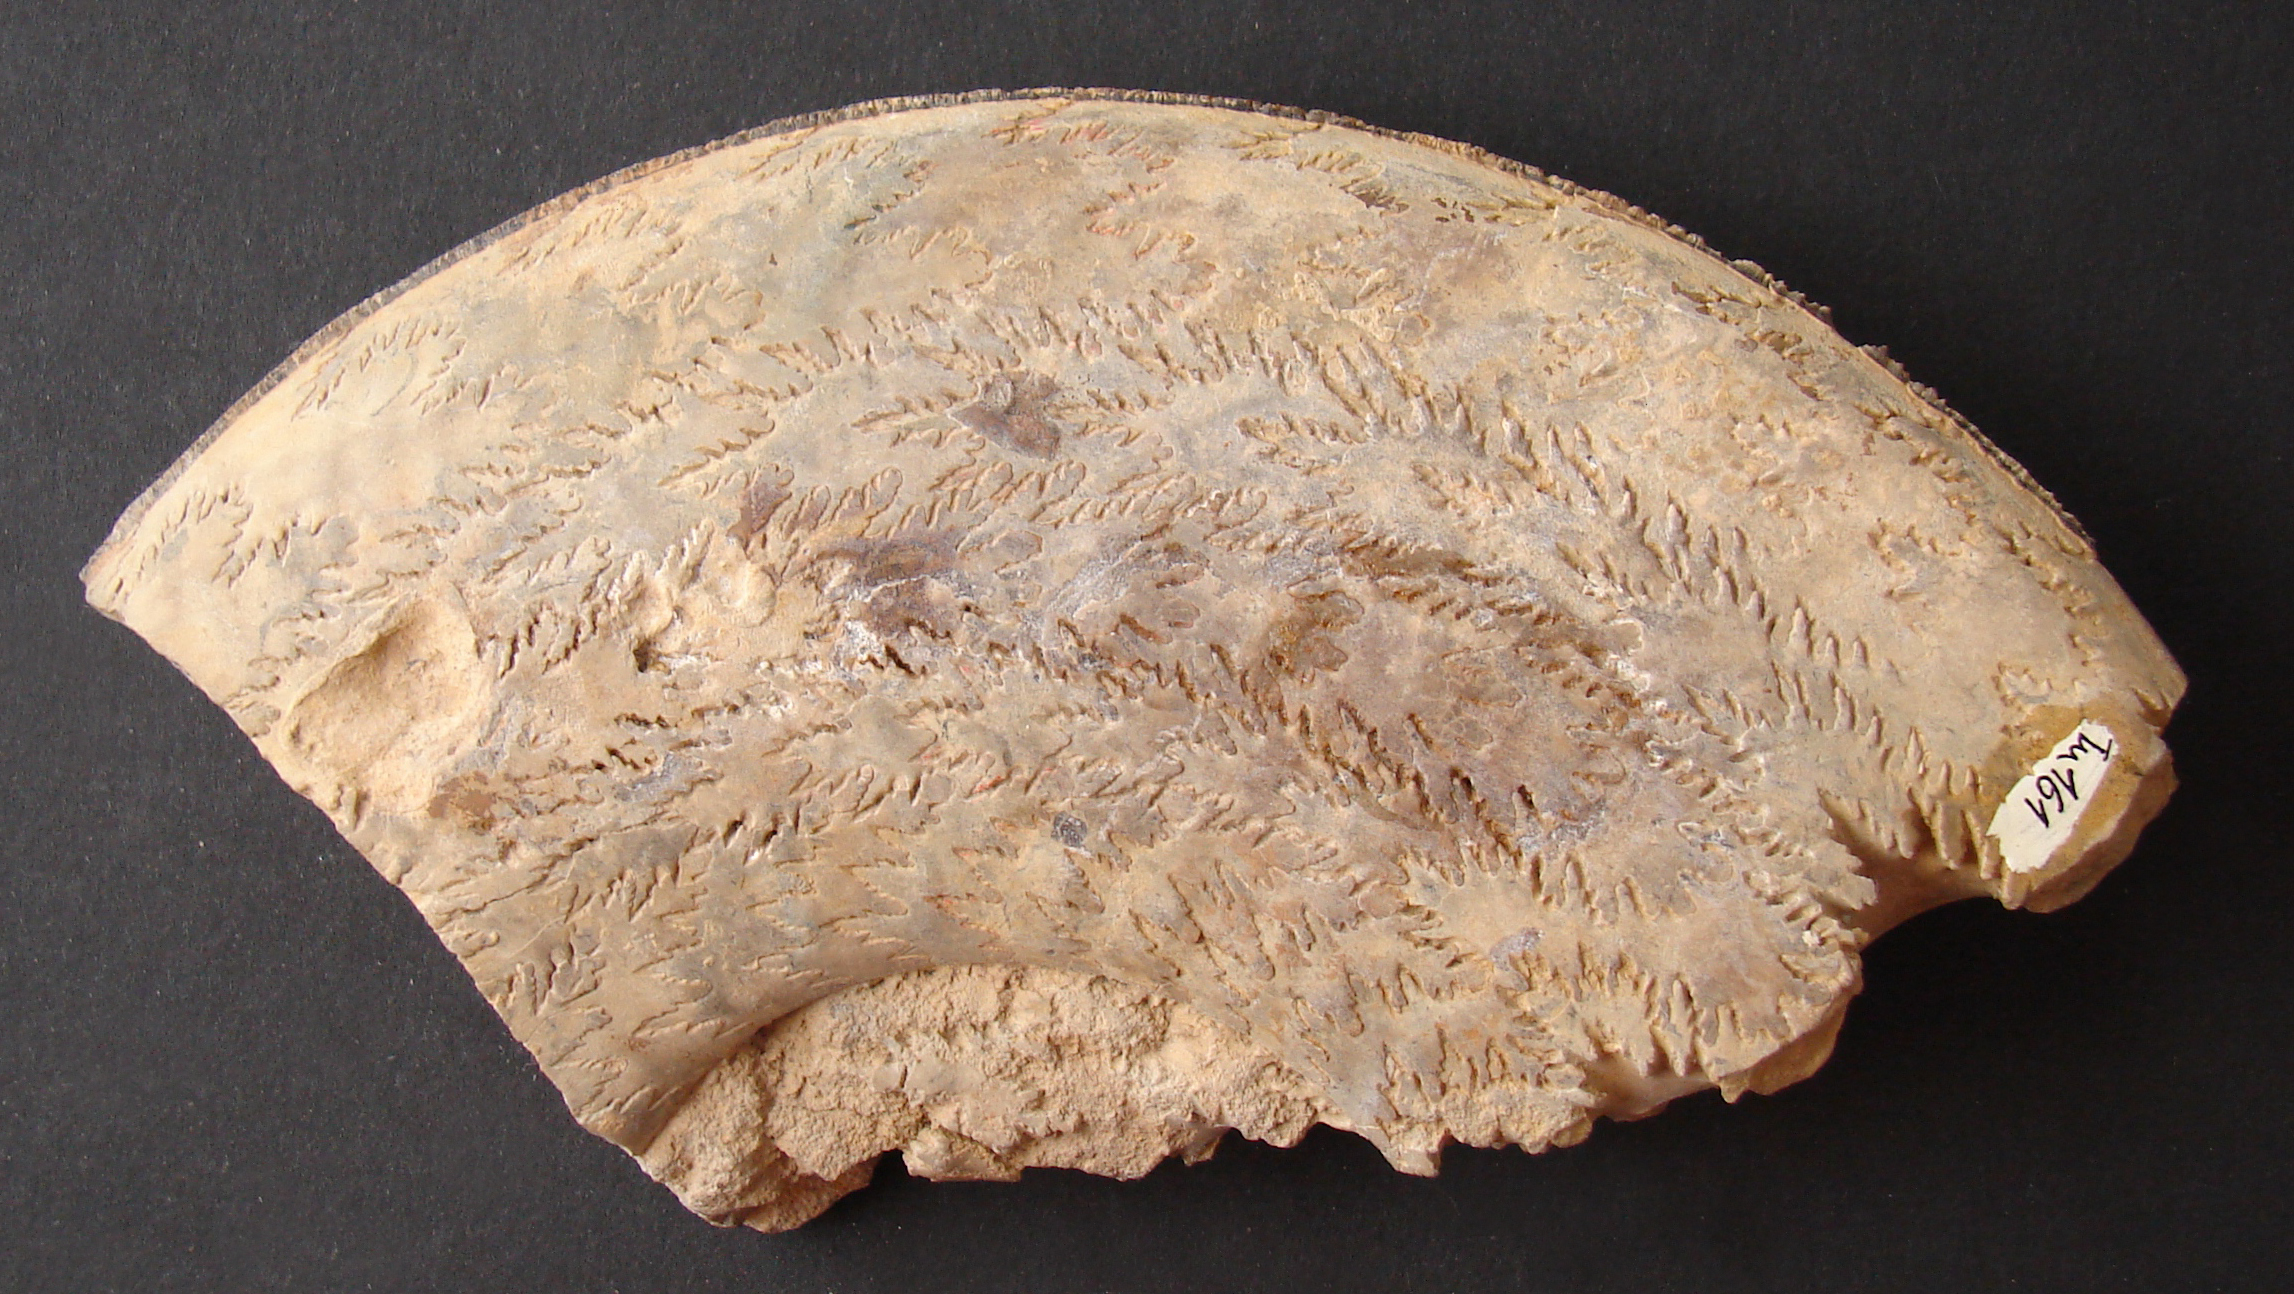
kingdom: Animalia
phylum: Mollusca
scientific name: Mollusca
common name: Mollusca
